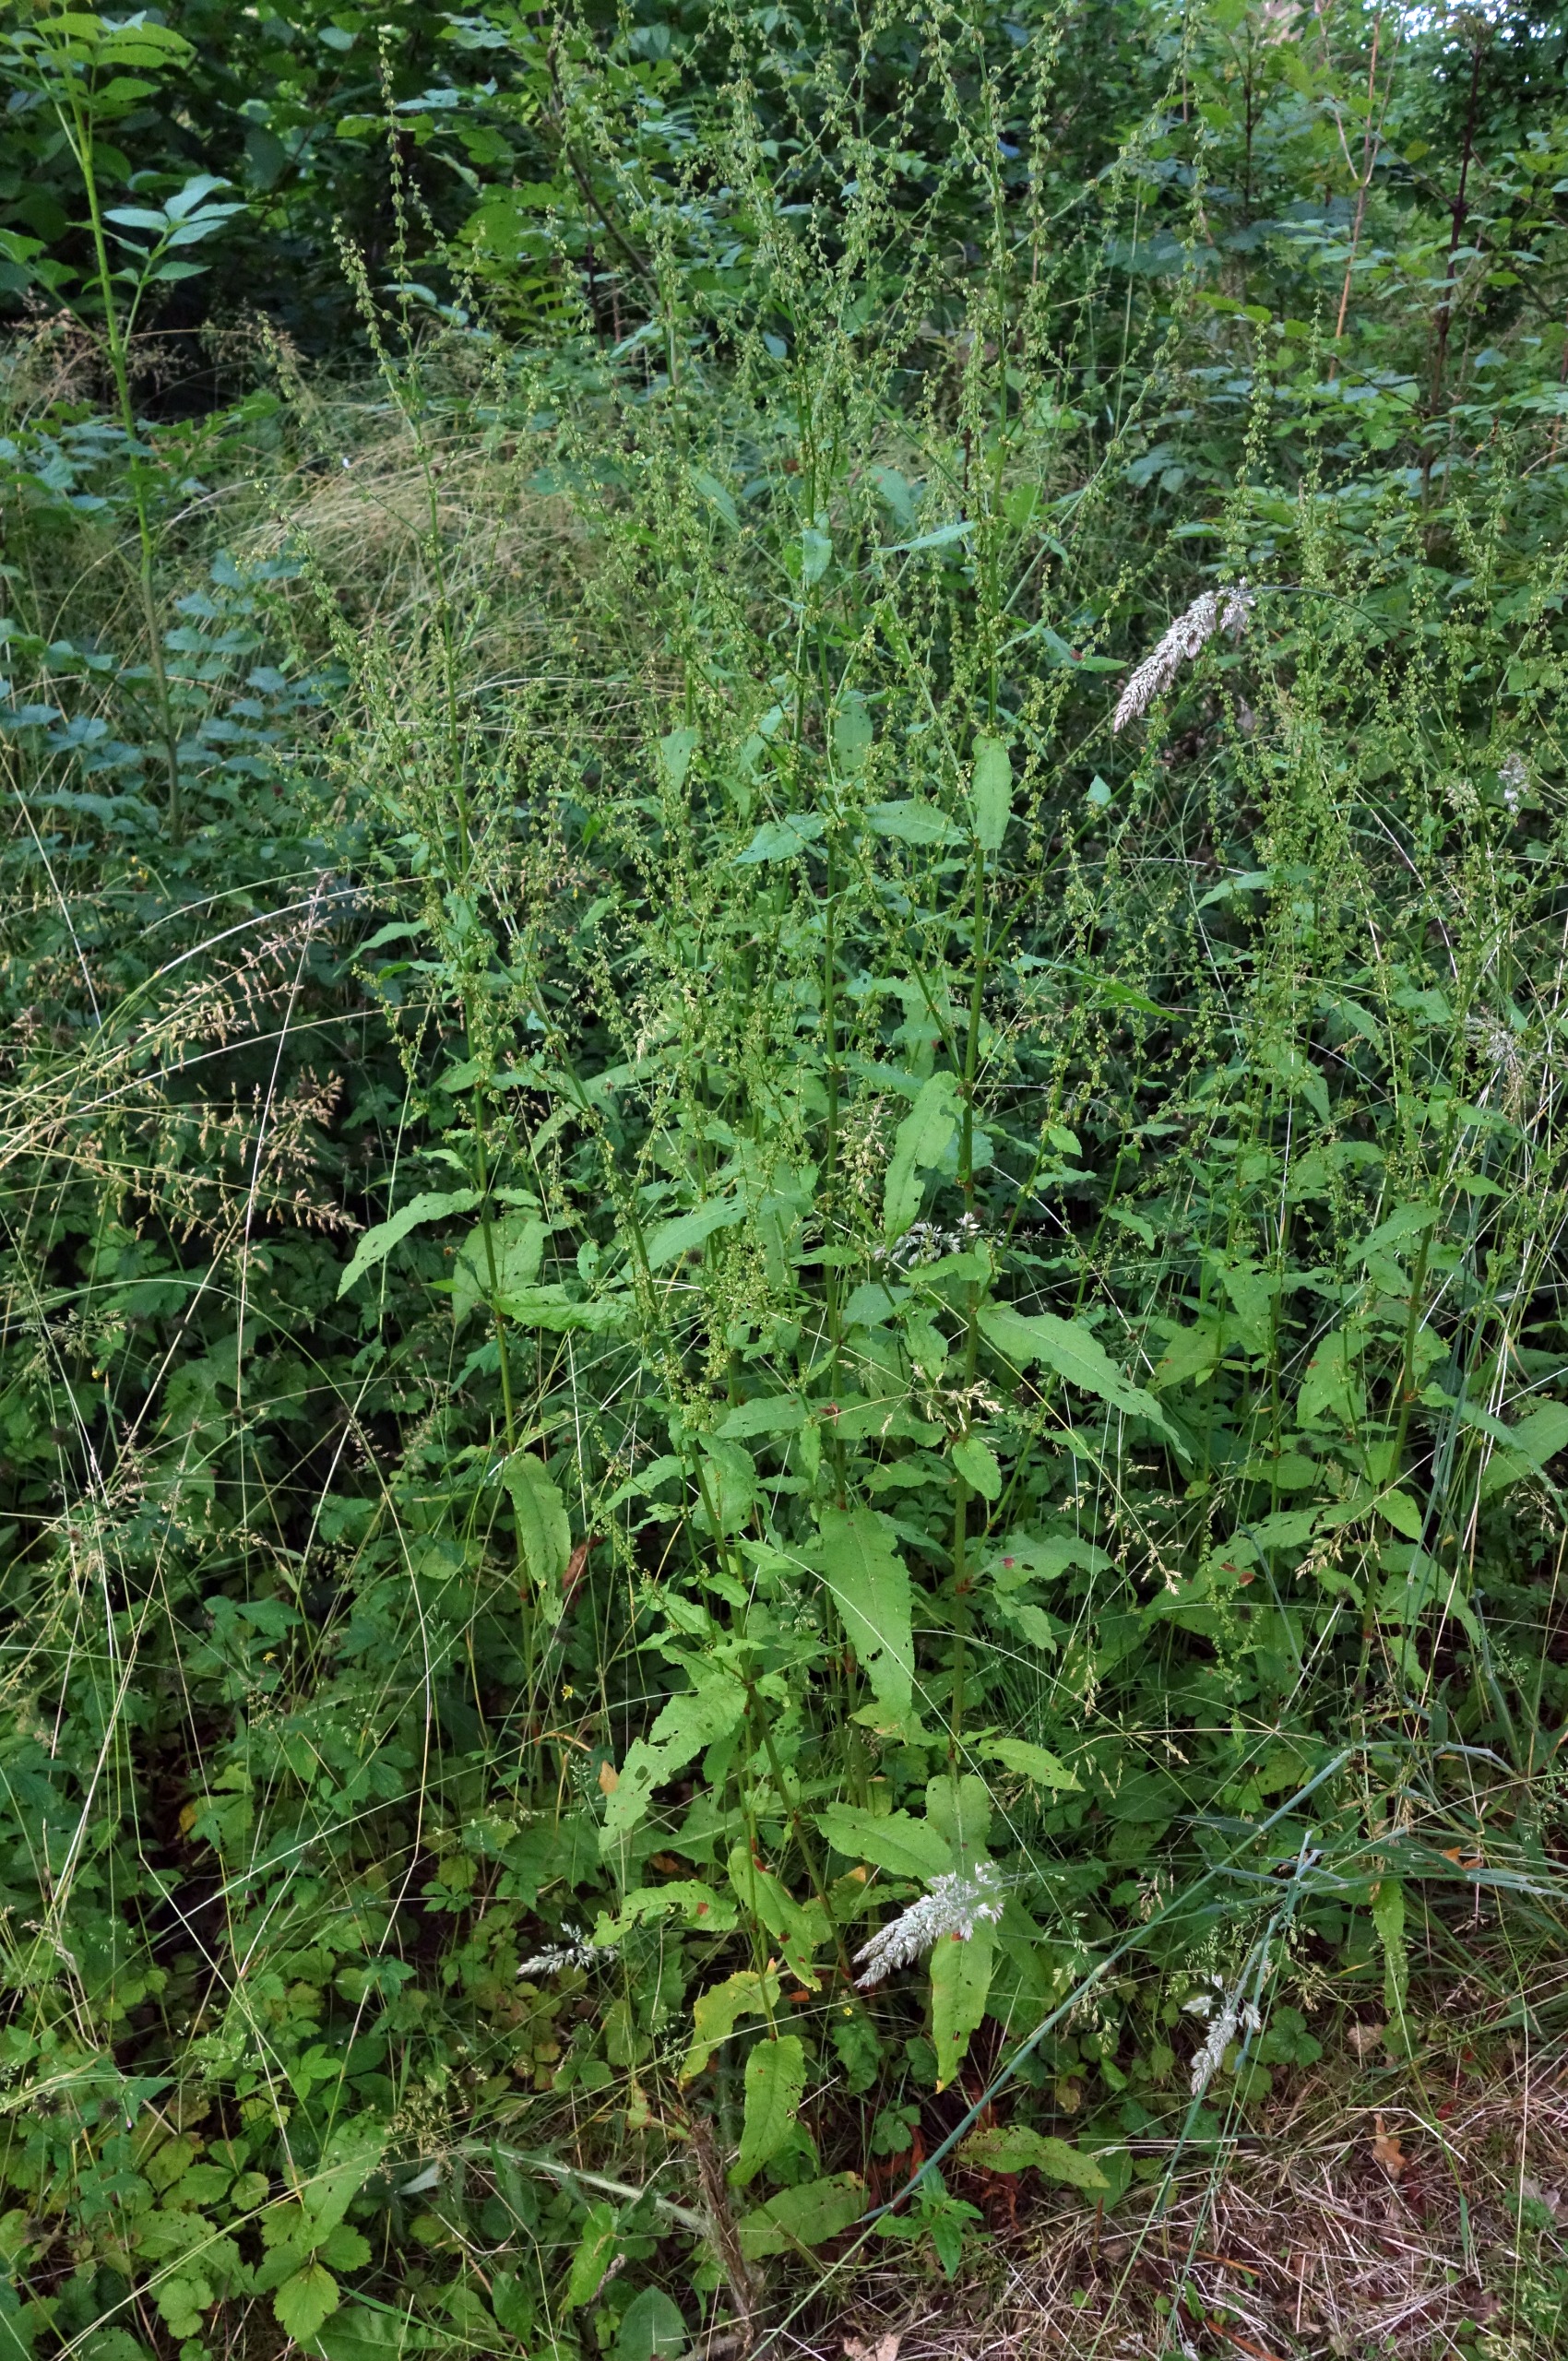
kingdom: Plantae
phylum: Tracheophyta
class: Magnoliopsida
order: Caryophyllales
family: Polygonaceae
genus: Rumex
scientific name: Rumex sanguineus
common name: Skov-skræppe
